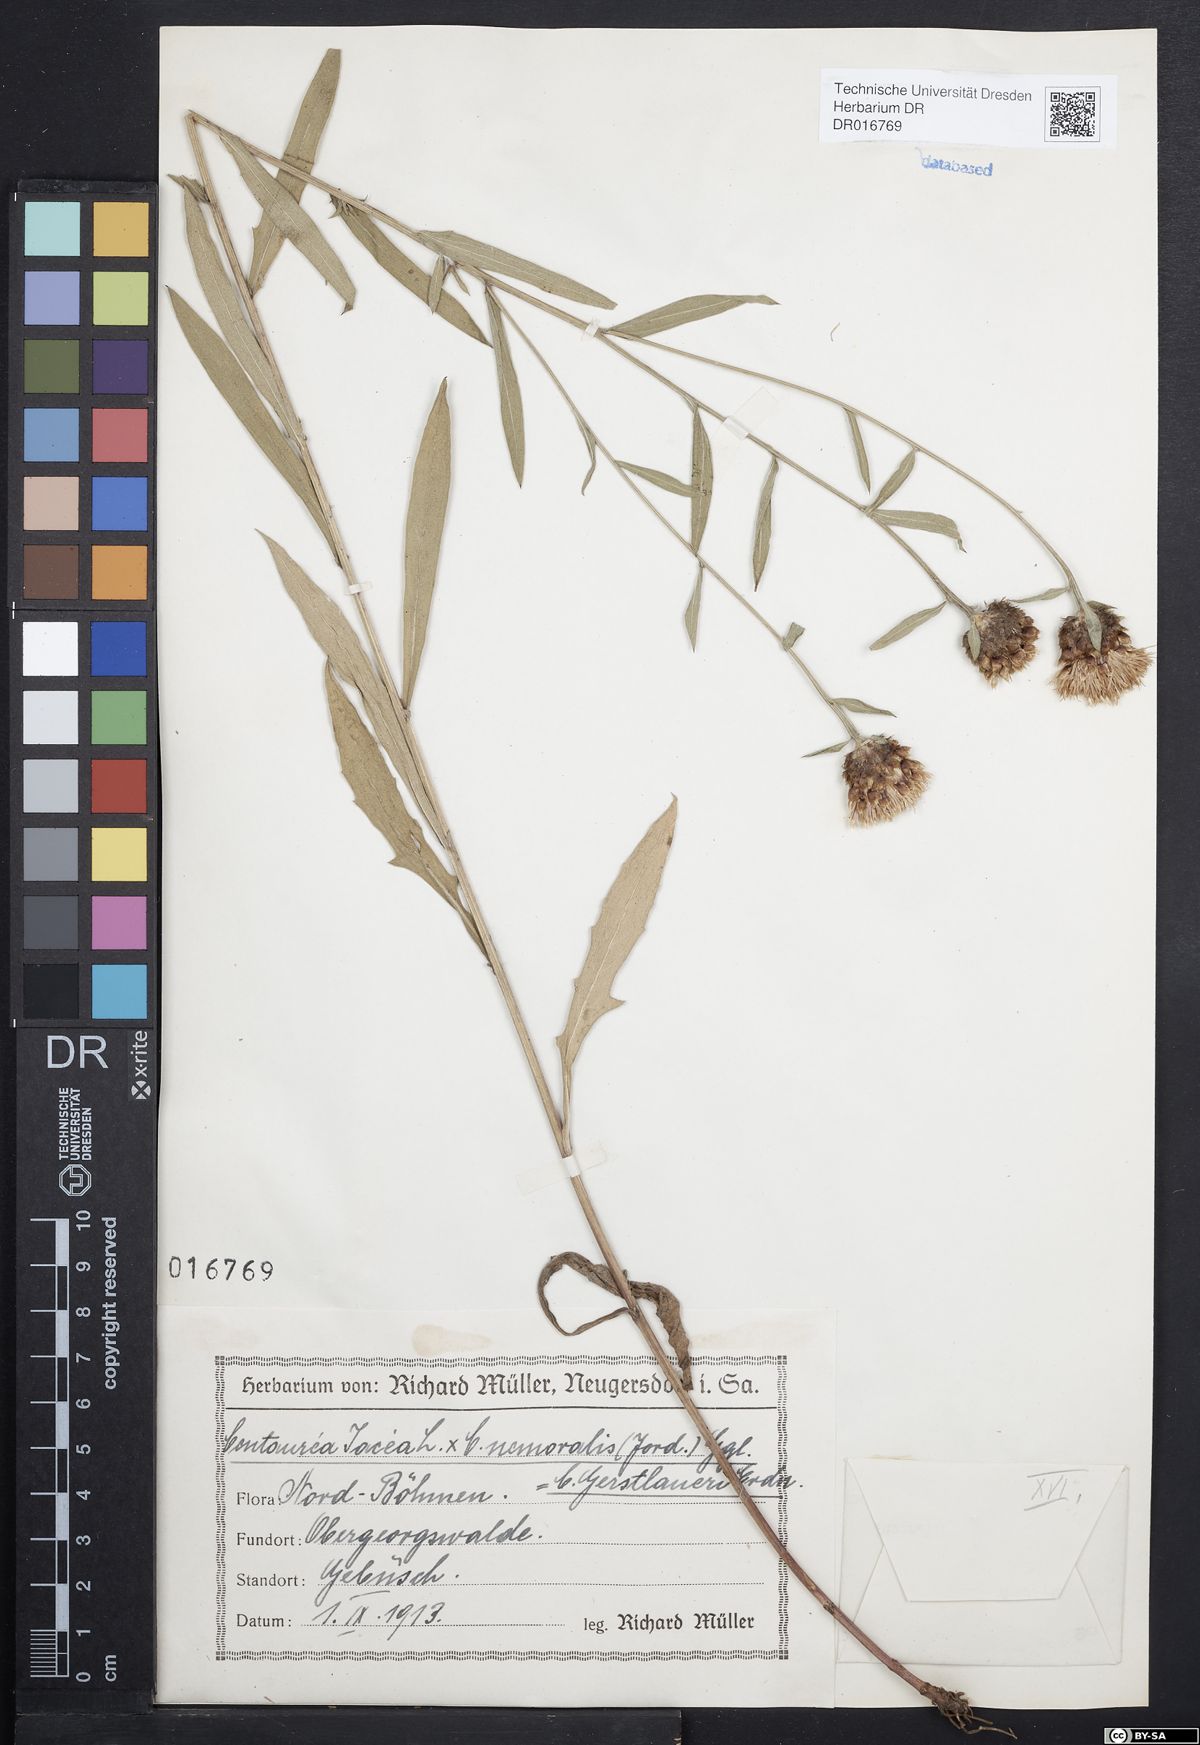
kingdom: Plantae
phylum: Tracheophyta
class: Magnoliopsida
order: Asterales
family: Asteraceae
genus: Centaurea
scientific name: Centaurea jacea
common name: Brown knapweed
